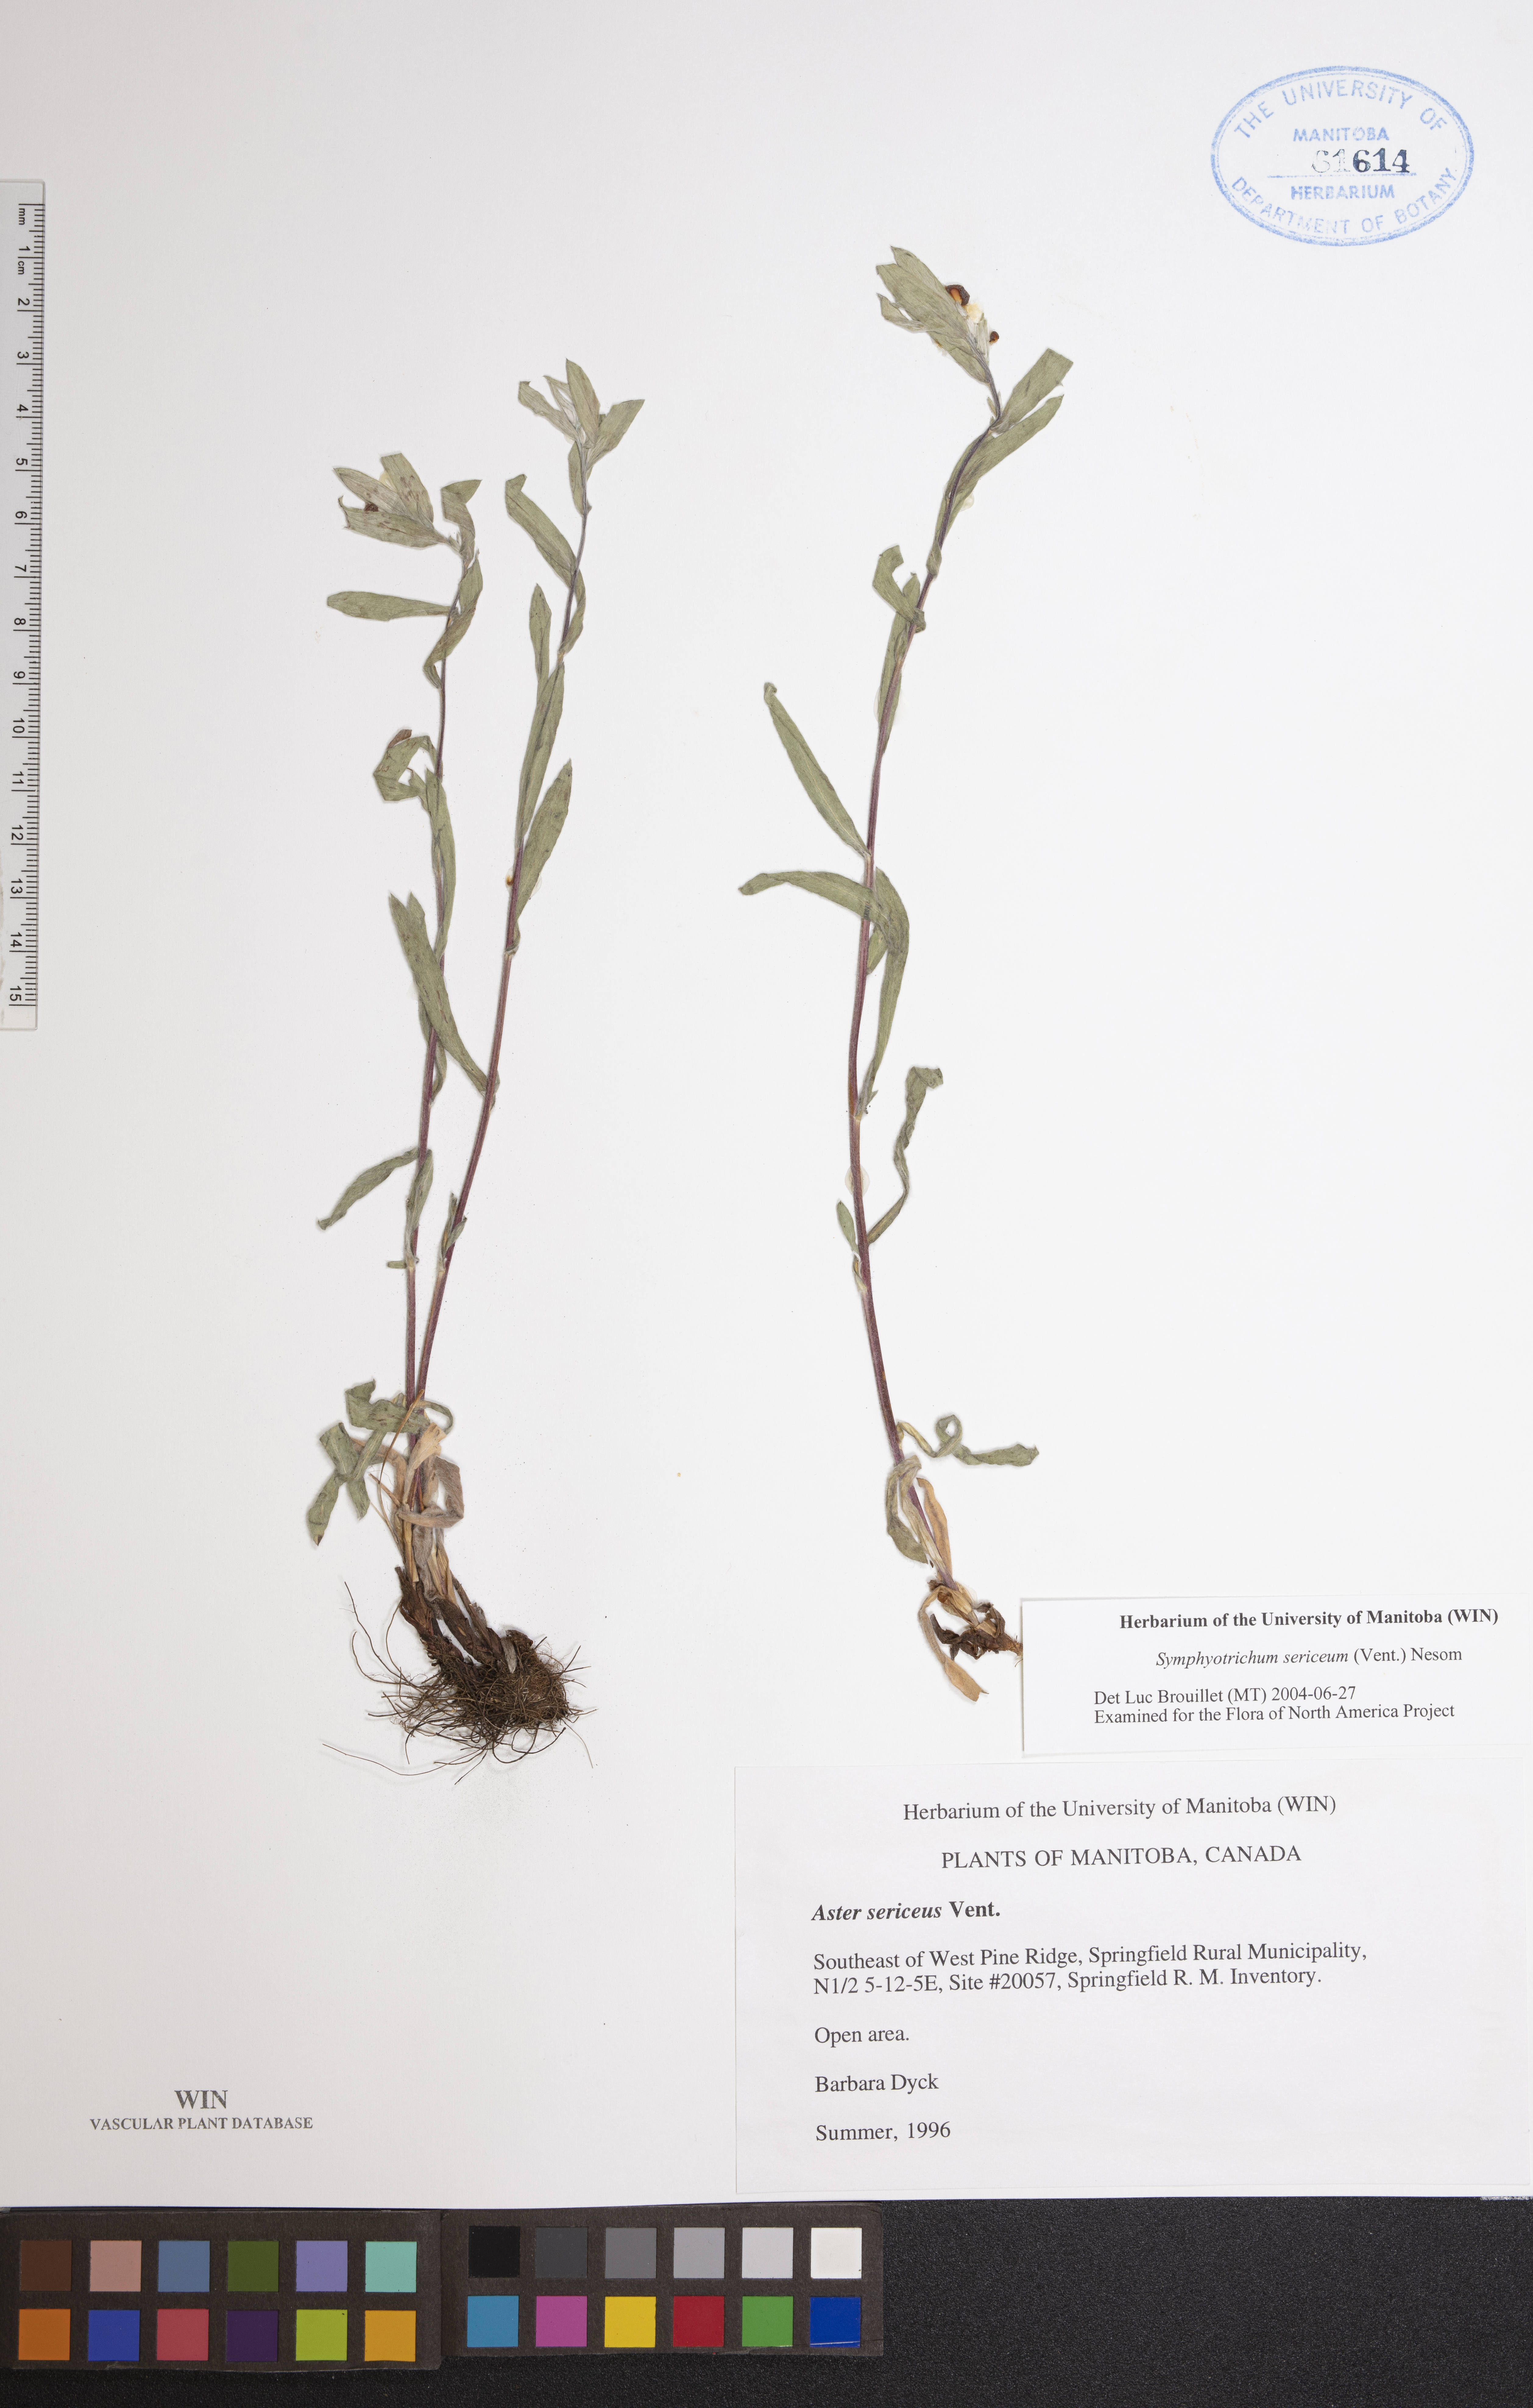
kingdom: Plantae
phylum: Tracheophyta
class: Magnoliopsida
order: Asterales
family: Asteraceae
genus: Symphyotrichum
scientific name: Symphyotrichum sericeum
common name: Silky aster
